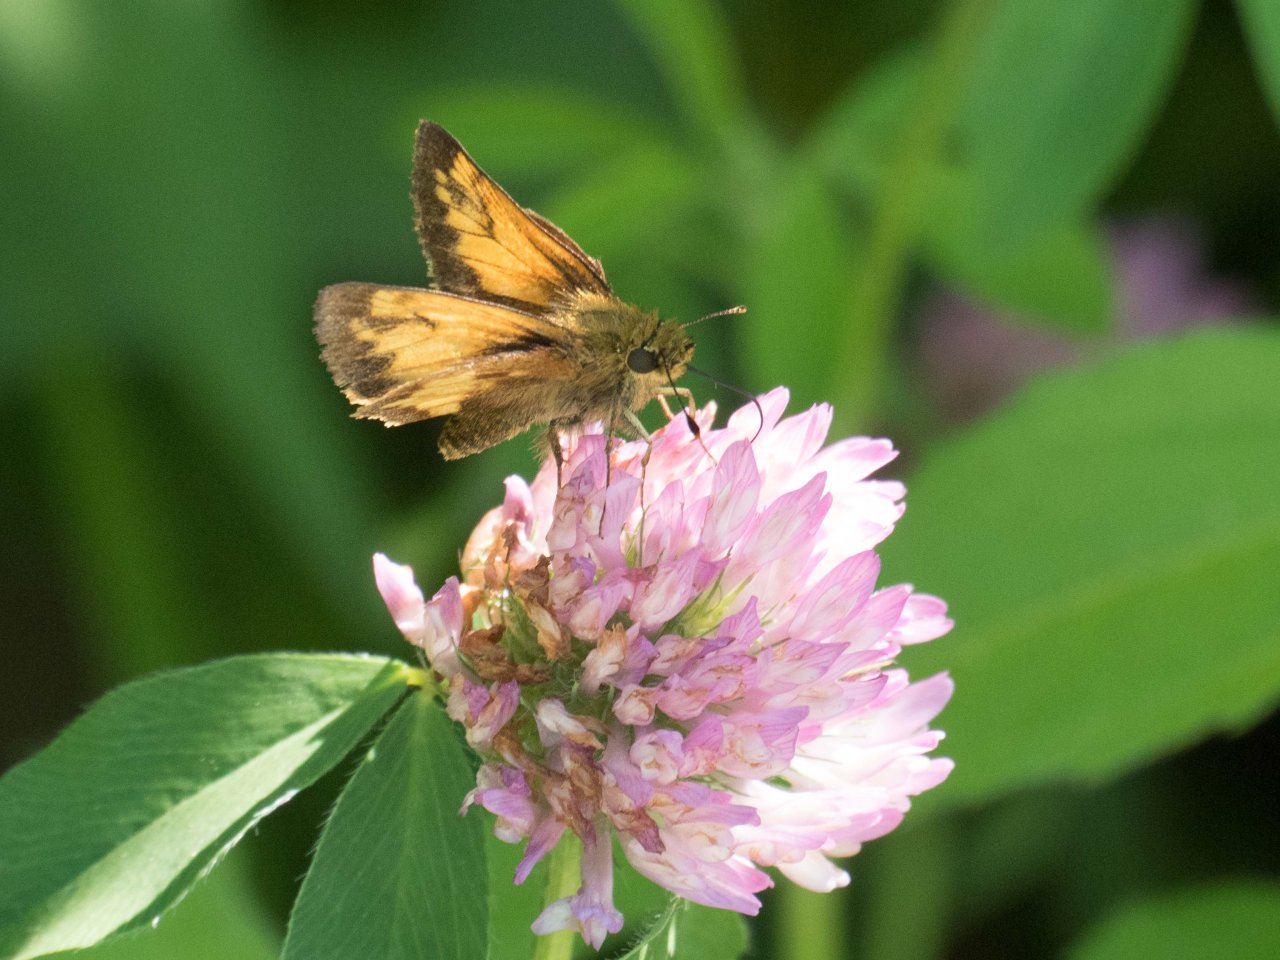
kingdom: Animalia
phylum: Arthropoda
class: Insecta
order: Lepidoptera
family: Hesperiidae
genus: Lon
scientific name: Lon hobomok
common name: Hobomok Skipper
